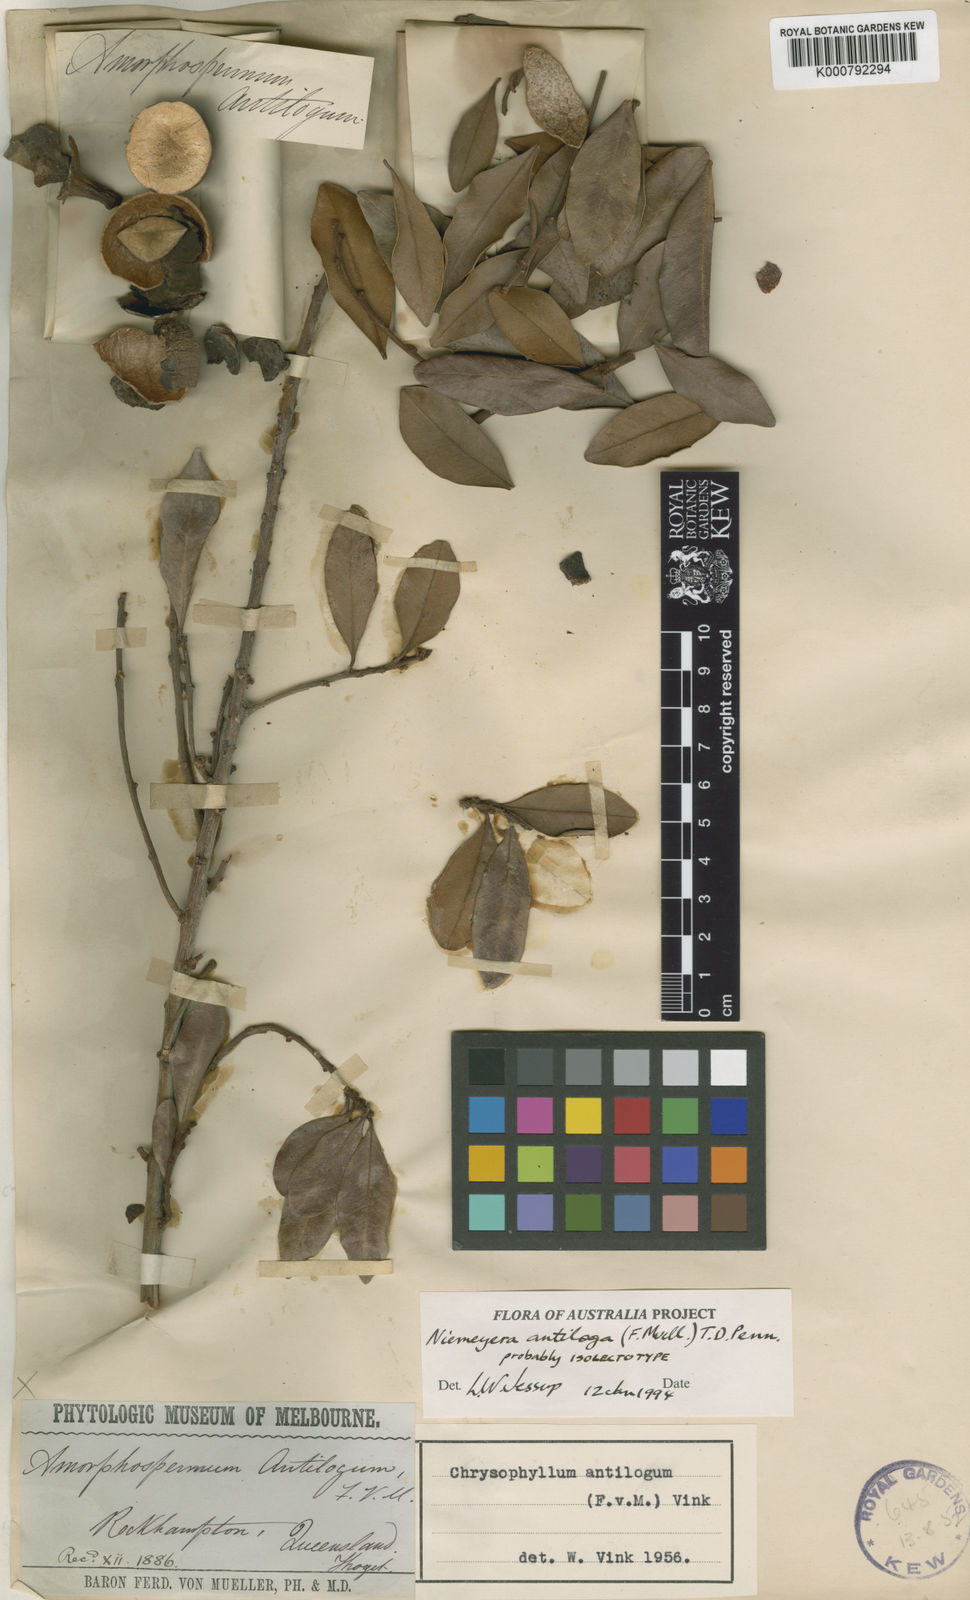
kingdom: Plantae
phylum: Tracheophyta
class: Magnoliopsida
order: Ericales
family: Sapotaceae
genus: Amorphospermum
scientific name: Amorphospermum antilogum
